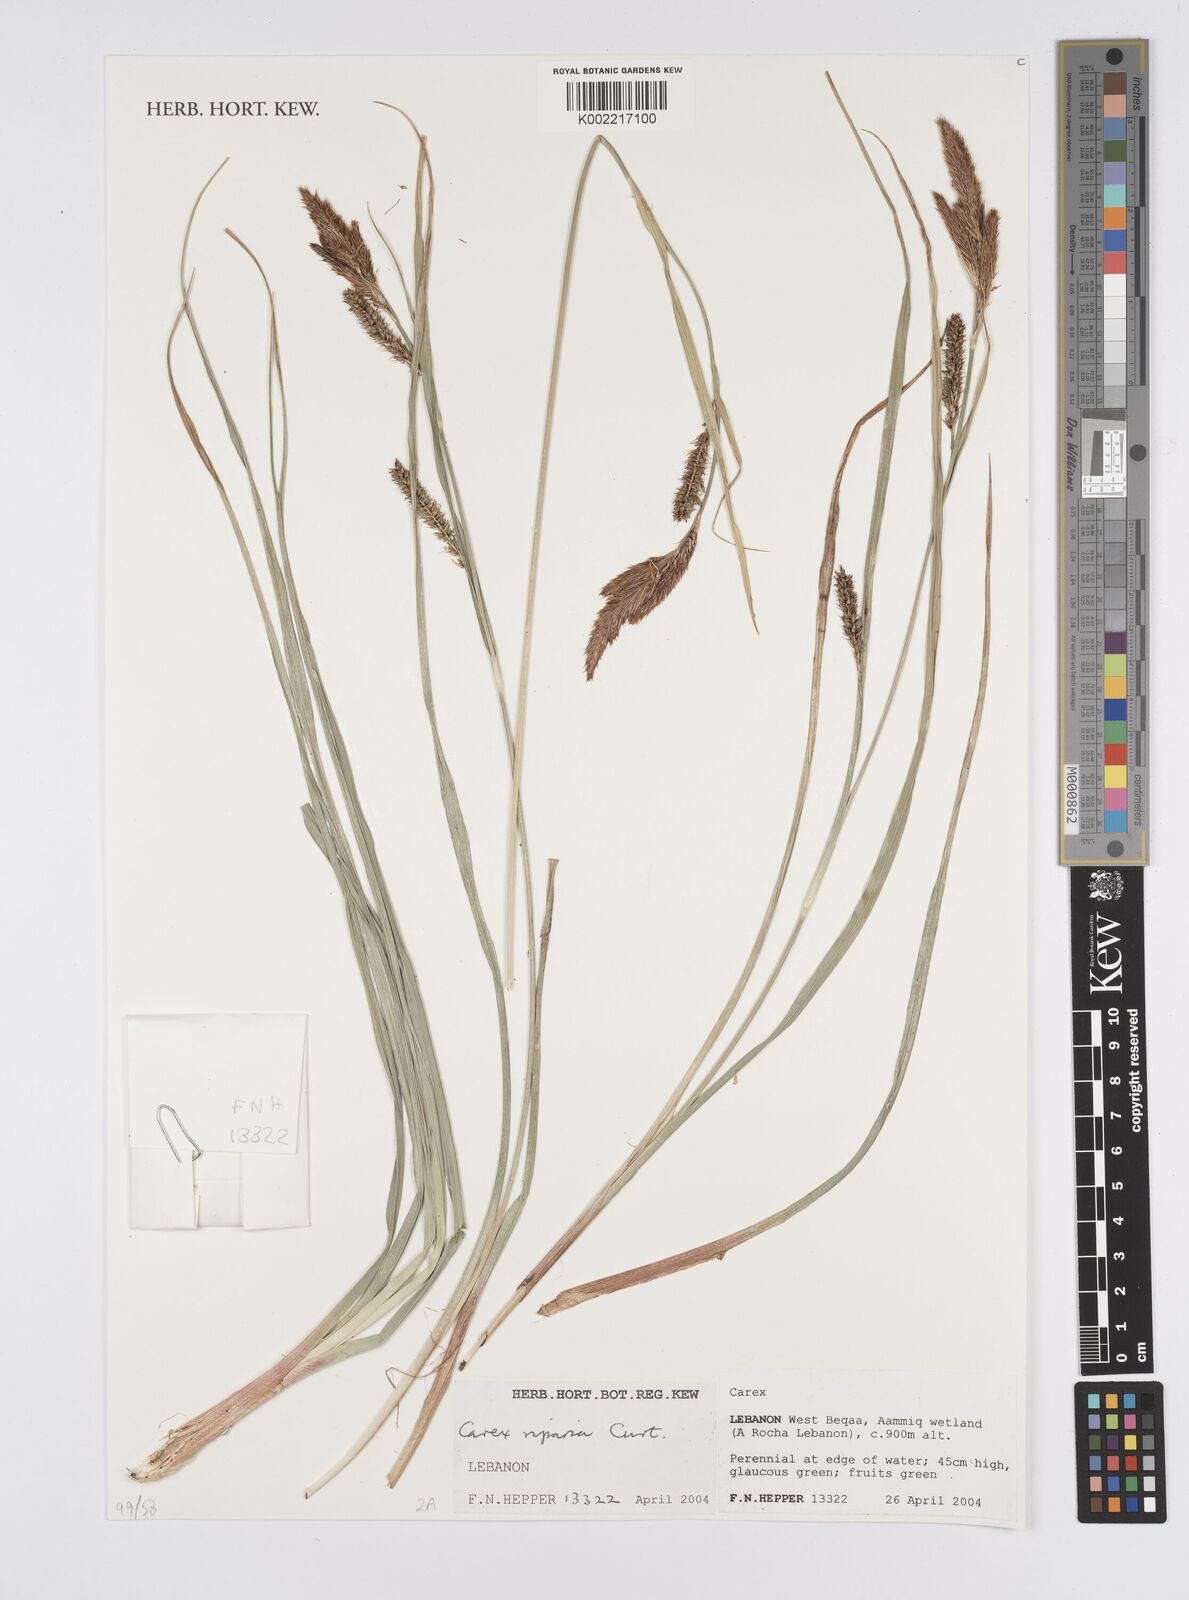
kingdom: Plantae
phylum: Tracheophyta
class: Liliopsida
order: Poales
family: Cyperaceae
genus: Carex
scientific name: Carex riparia
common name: Greater pond-sedge
